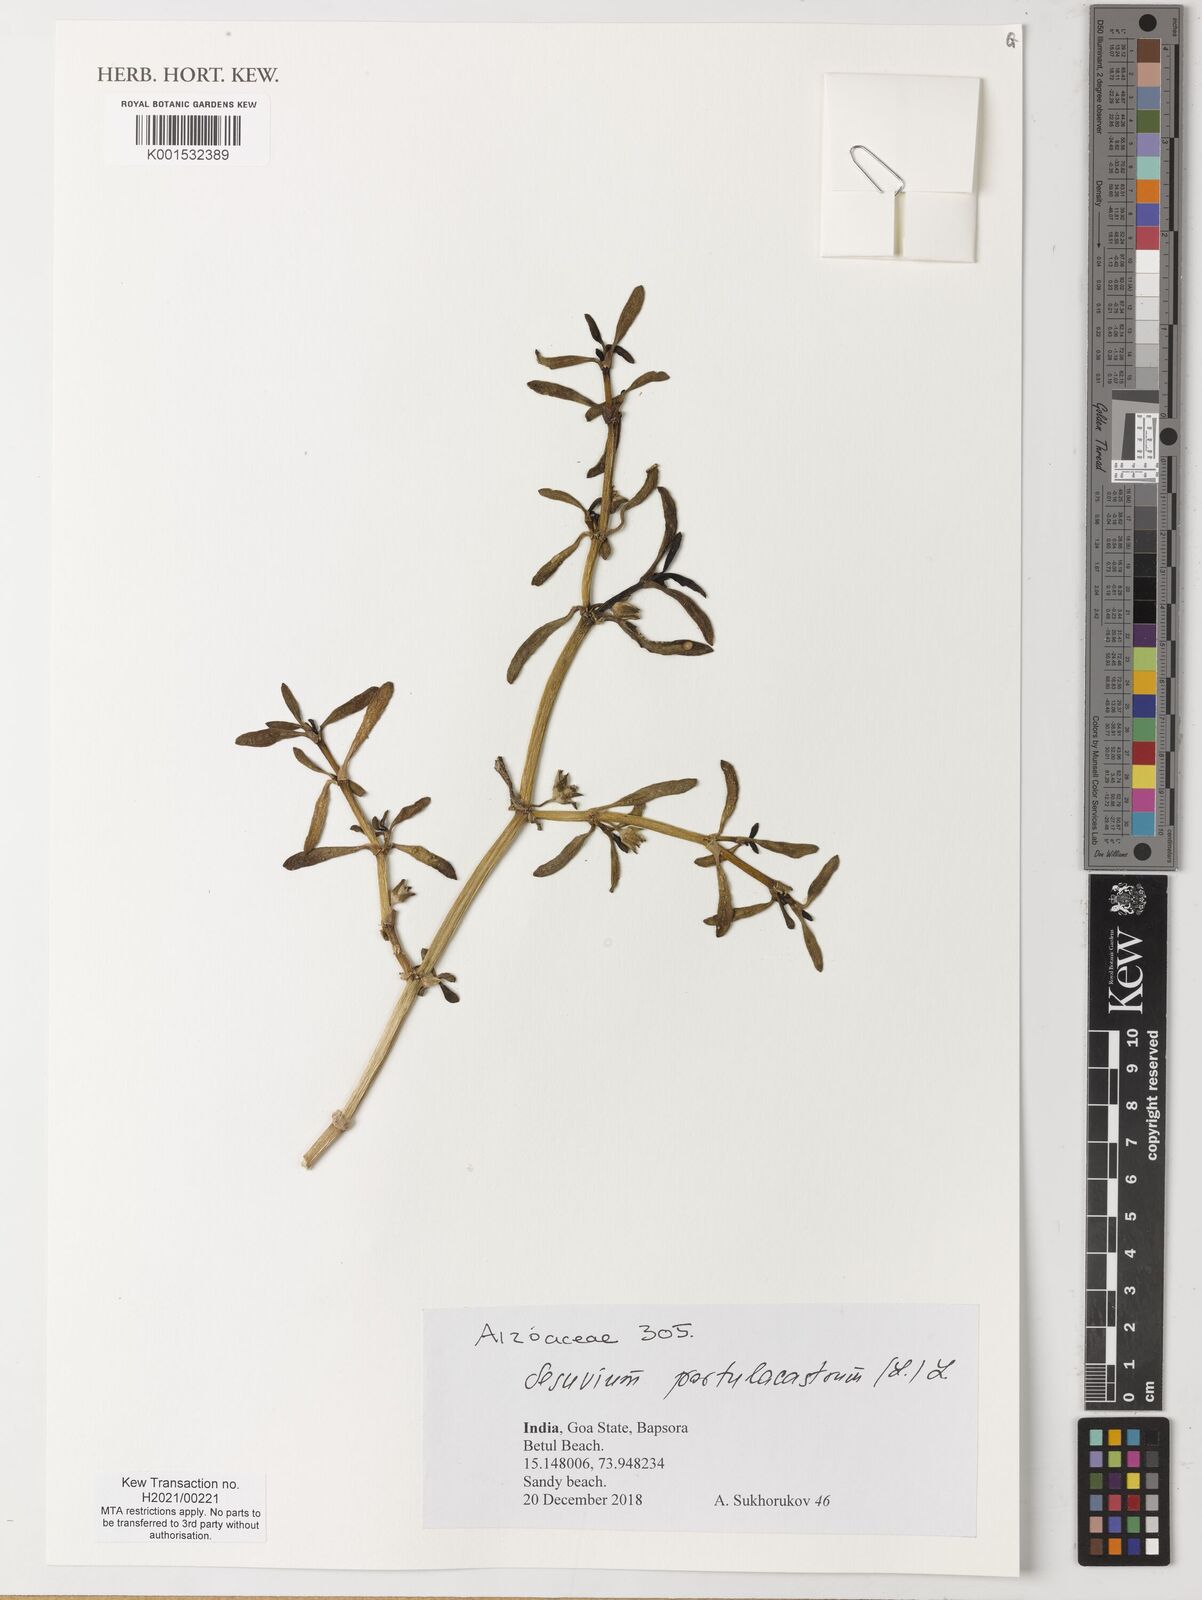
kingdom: Plantae
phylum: Tracheophyta
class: Magnoliopsida
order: Caryophyllales
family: Aizoaceae
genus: Sesuvium
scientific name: Sesuvium portulacastrum
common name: Sea-purslane
